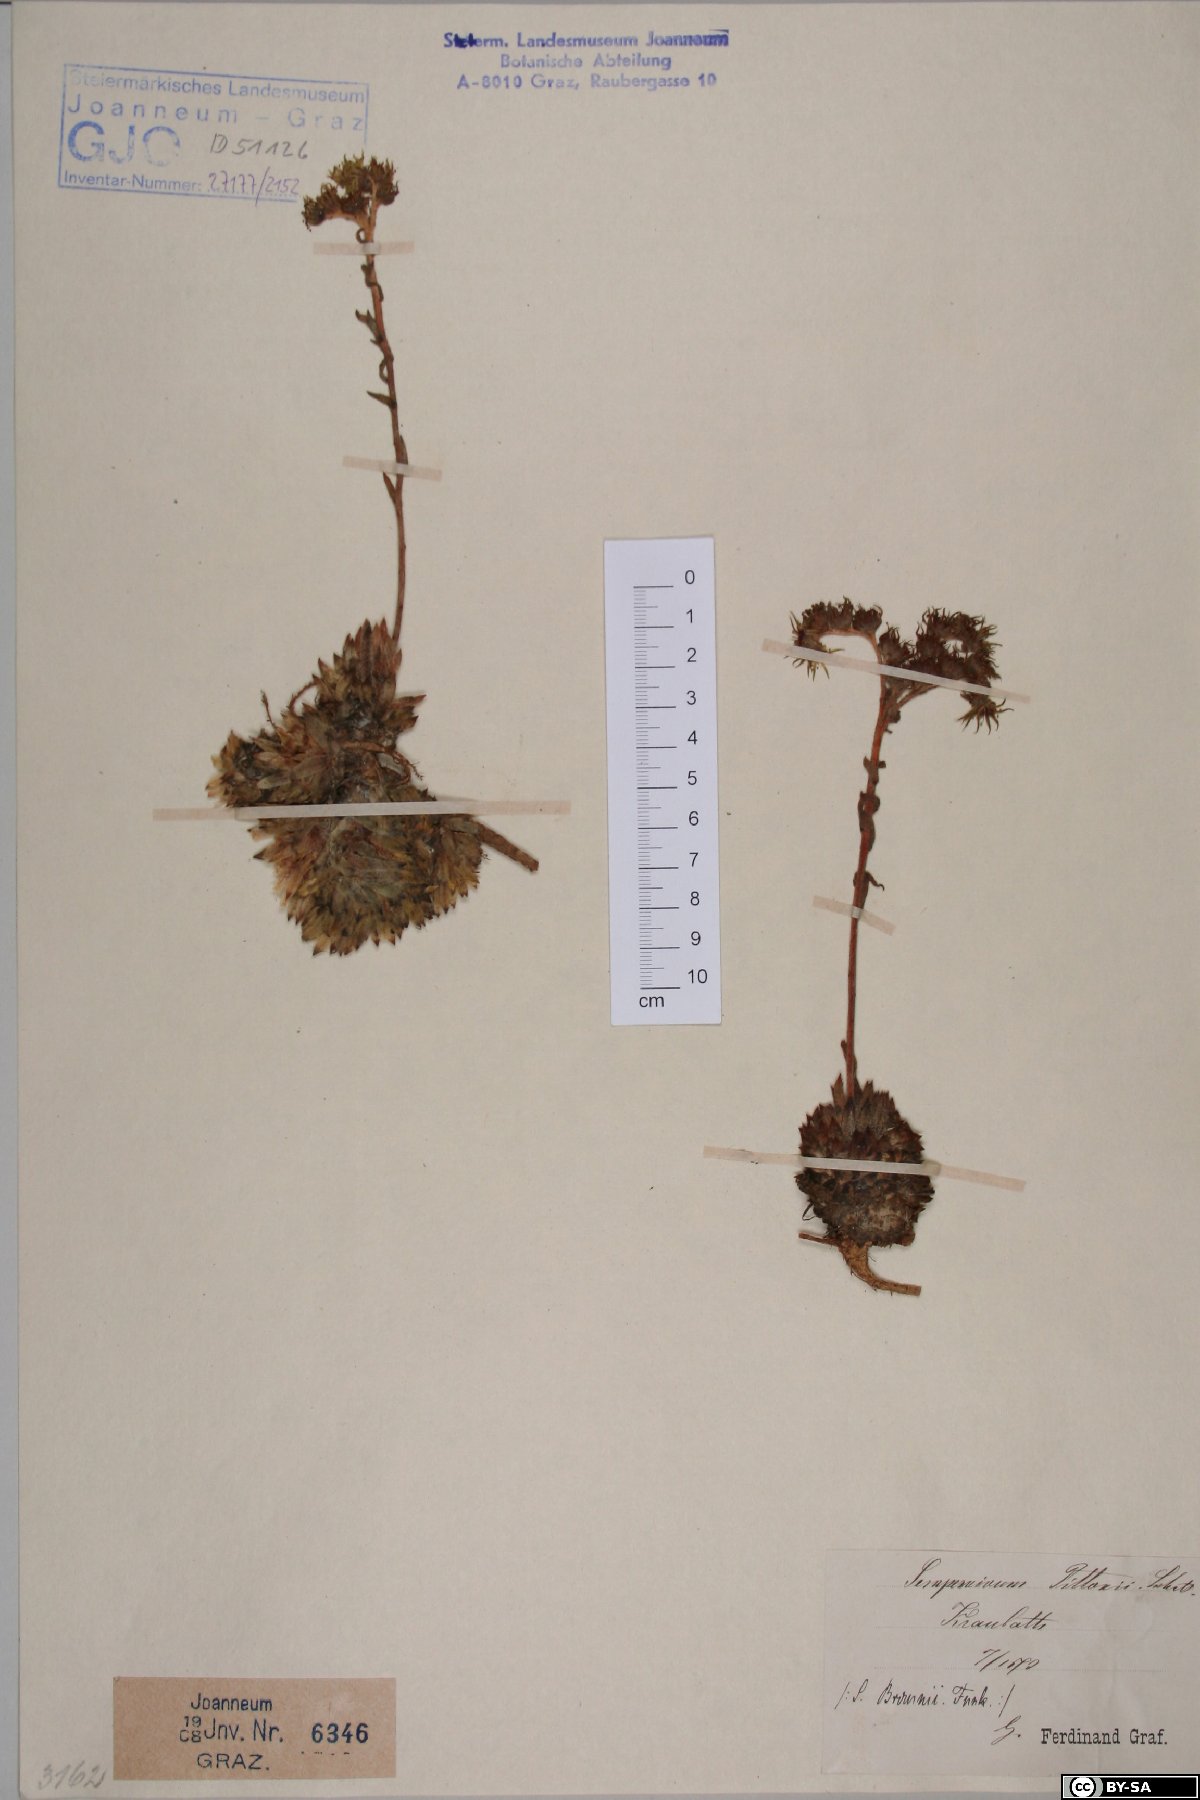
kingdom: Plantae
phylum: Tracheophyta
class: Magnoliopsida
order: Saxifragales
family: Crassulaceae
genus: Sempervivum
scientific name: Sempervivum pittonii
